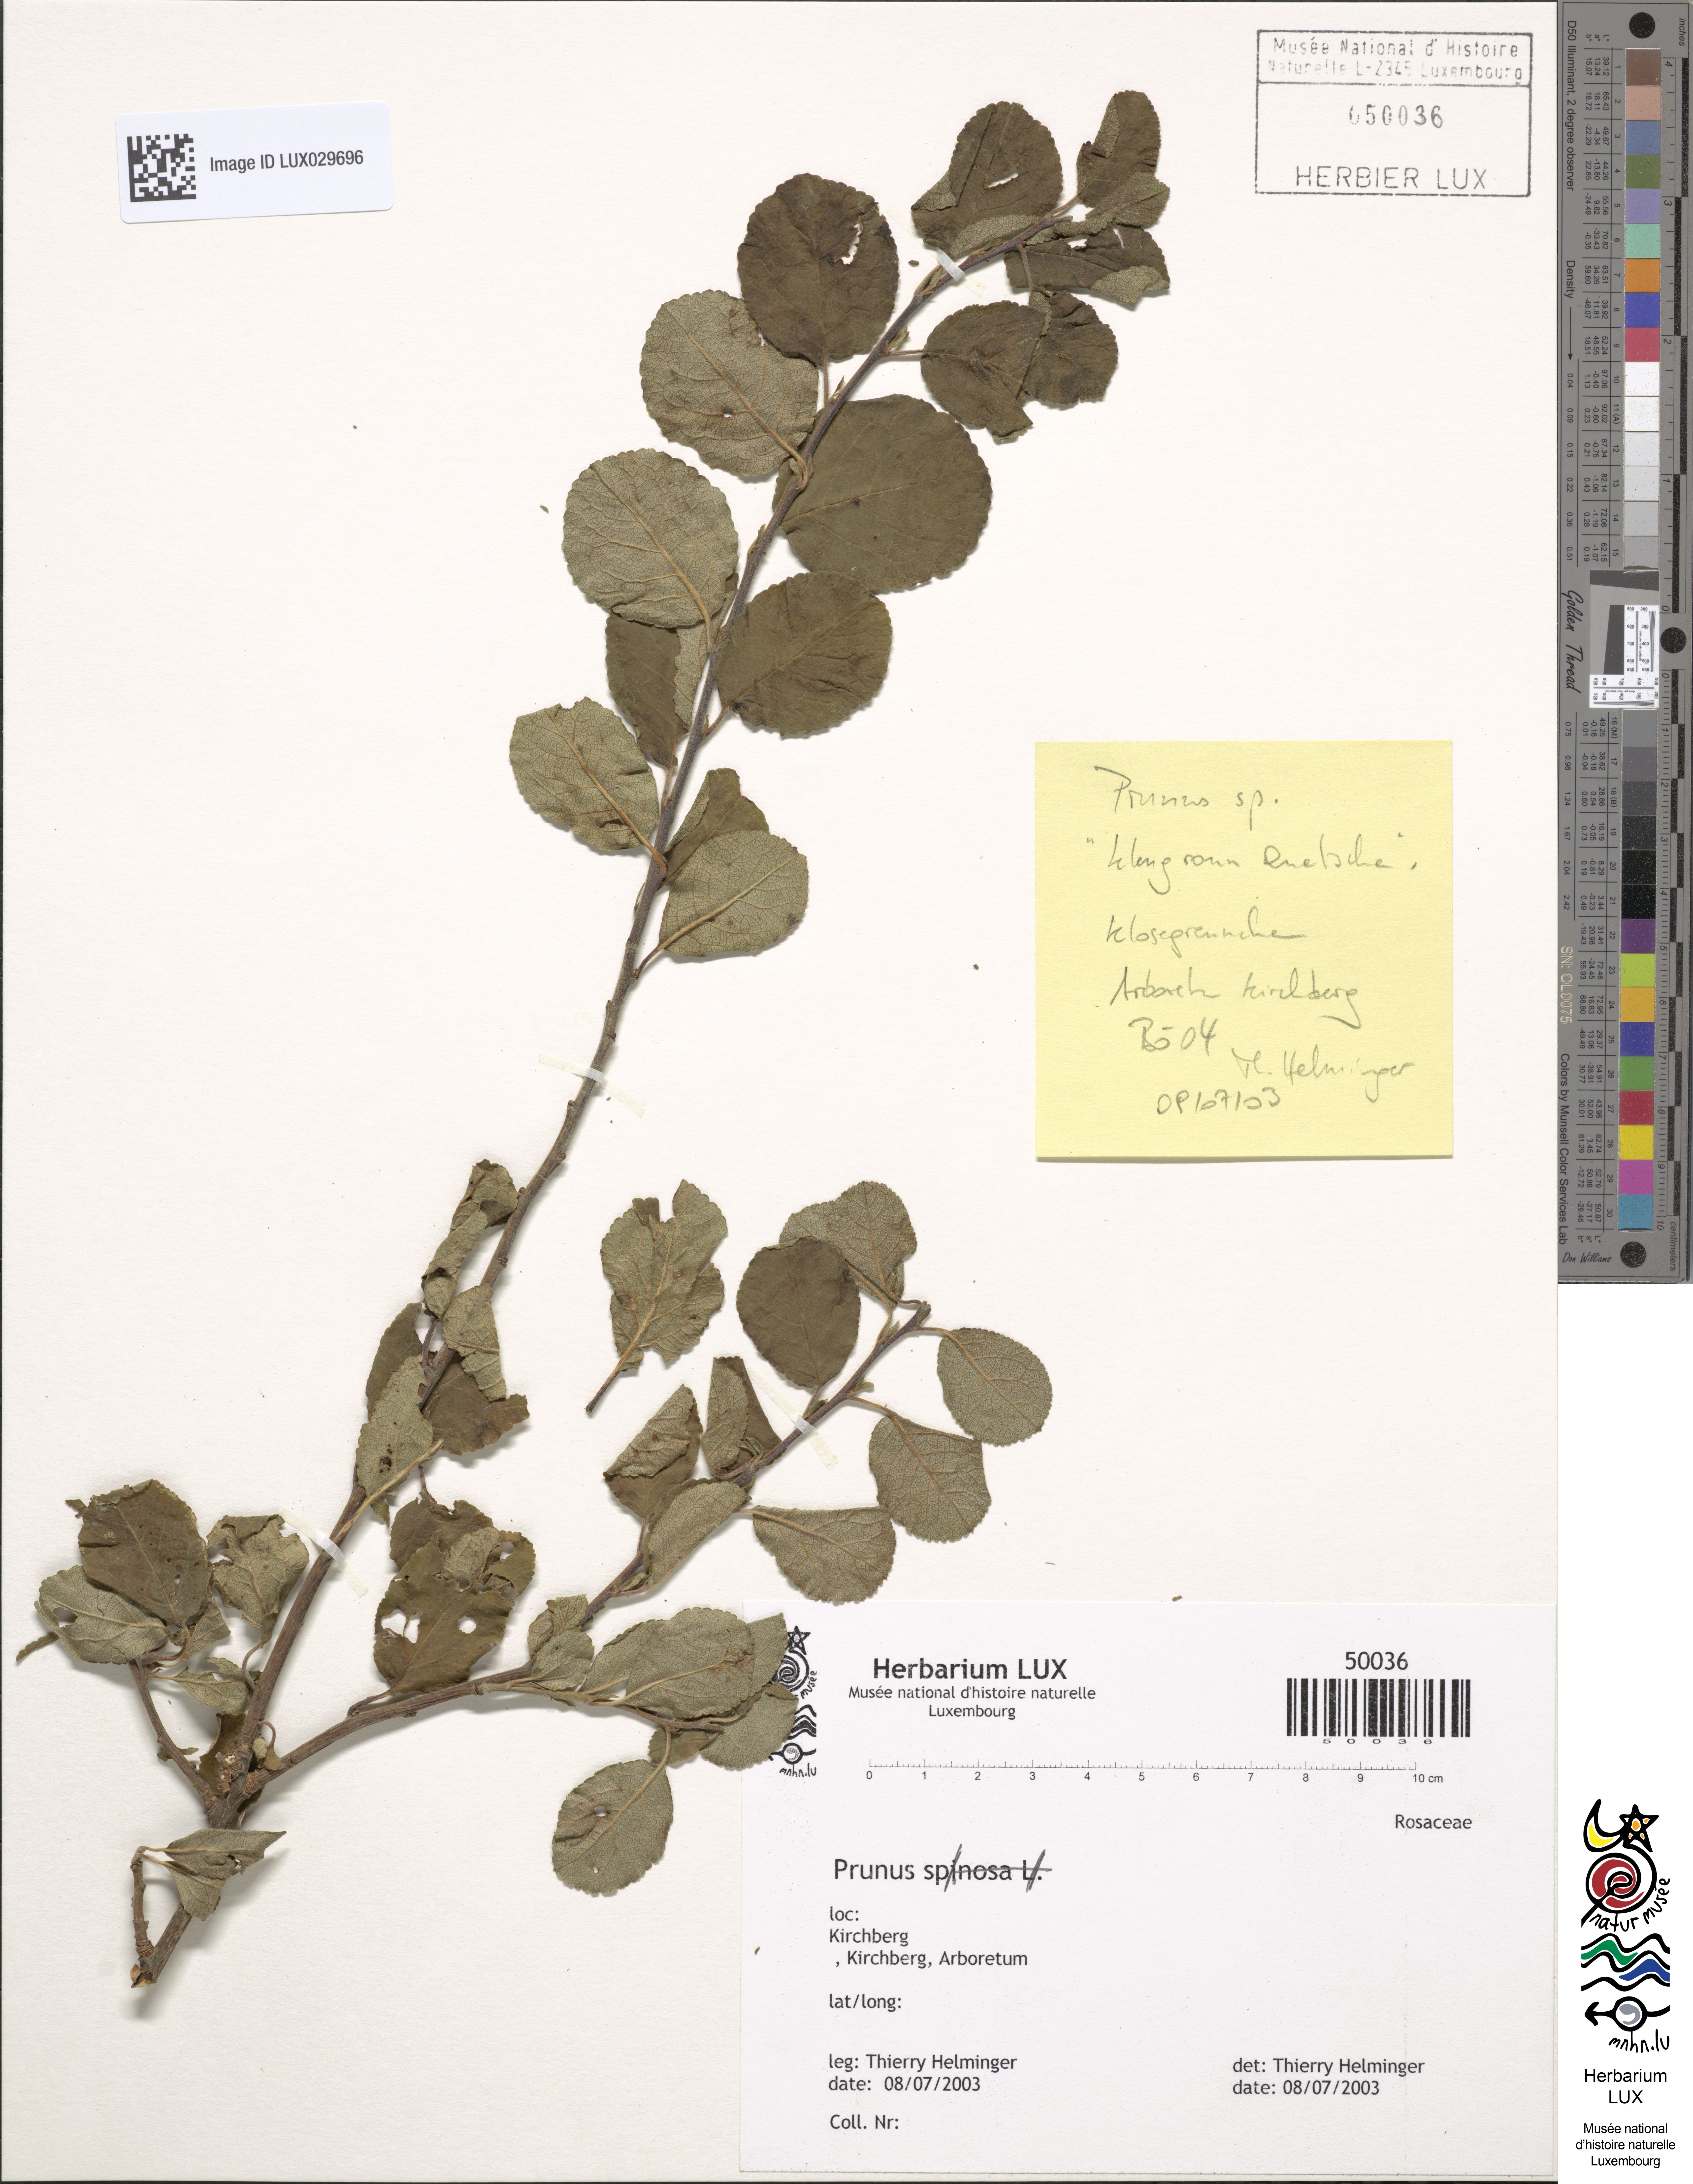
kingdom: Plantae
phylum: Tracheophyta
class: Magnoliopsida
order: Rosales
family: Rosaceae
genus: Prunus
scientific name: Prunus
